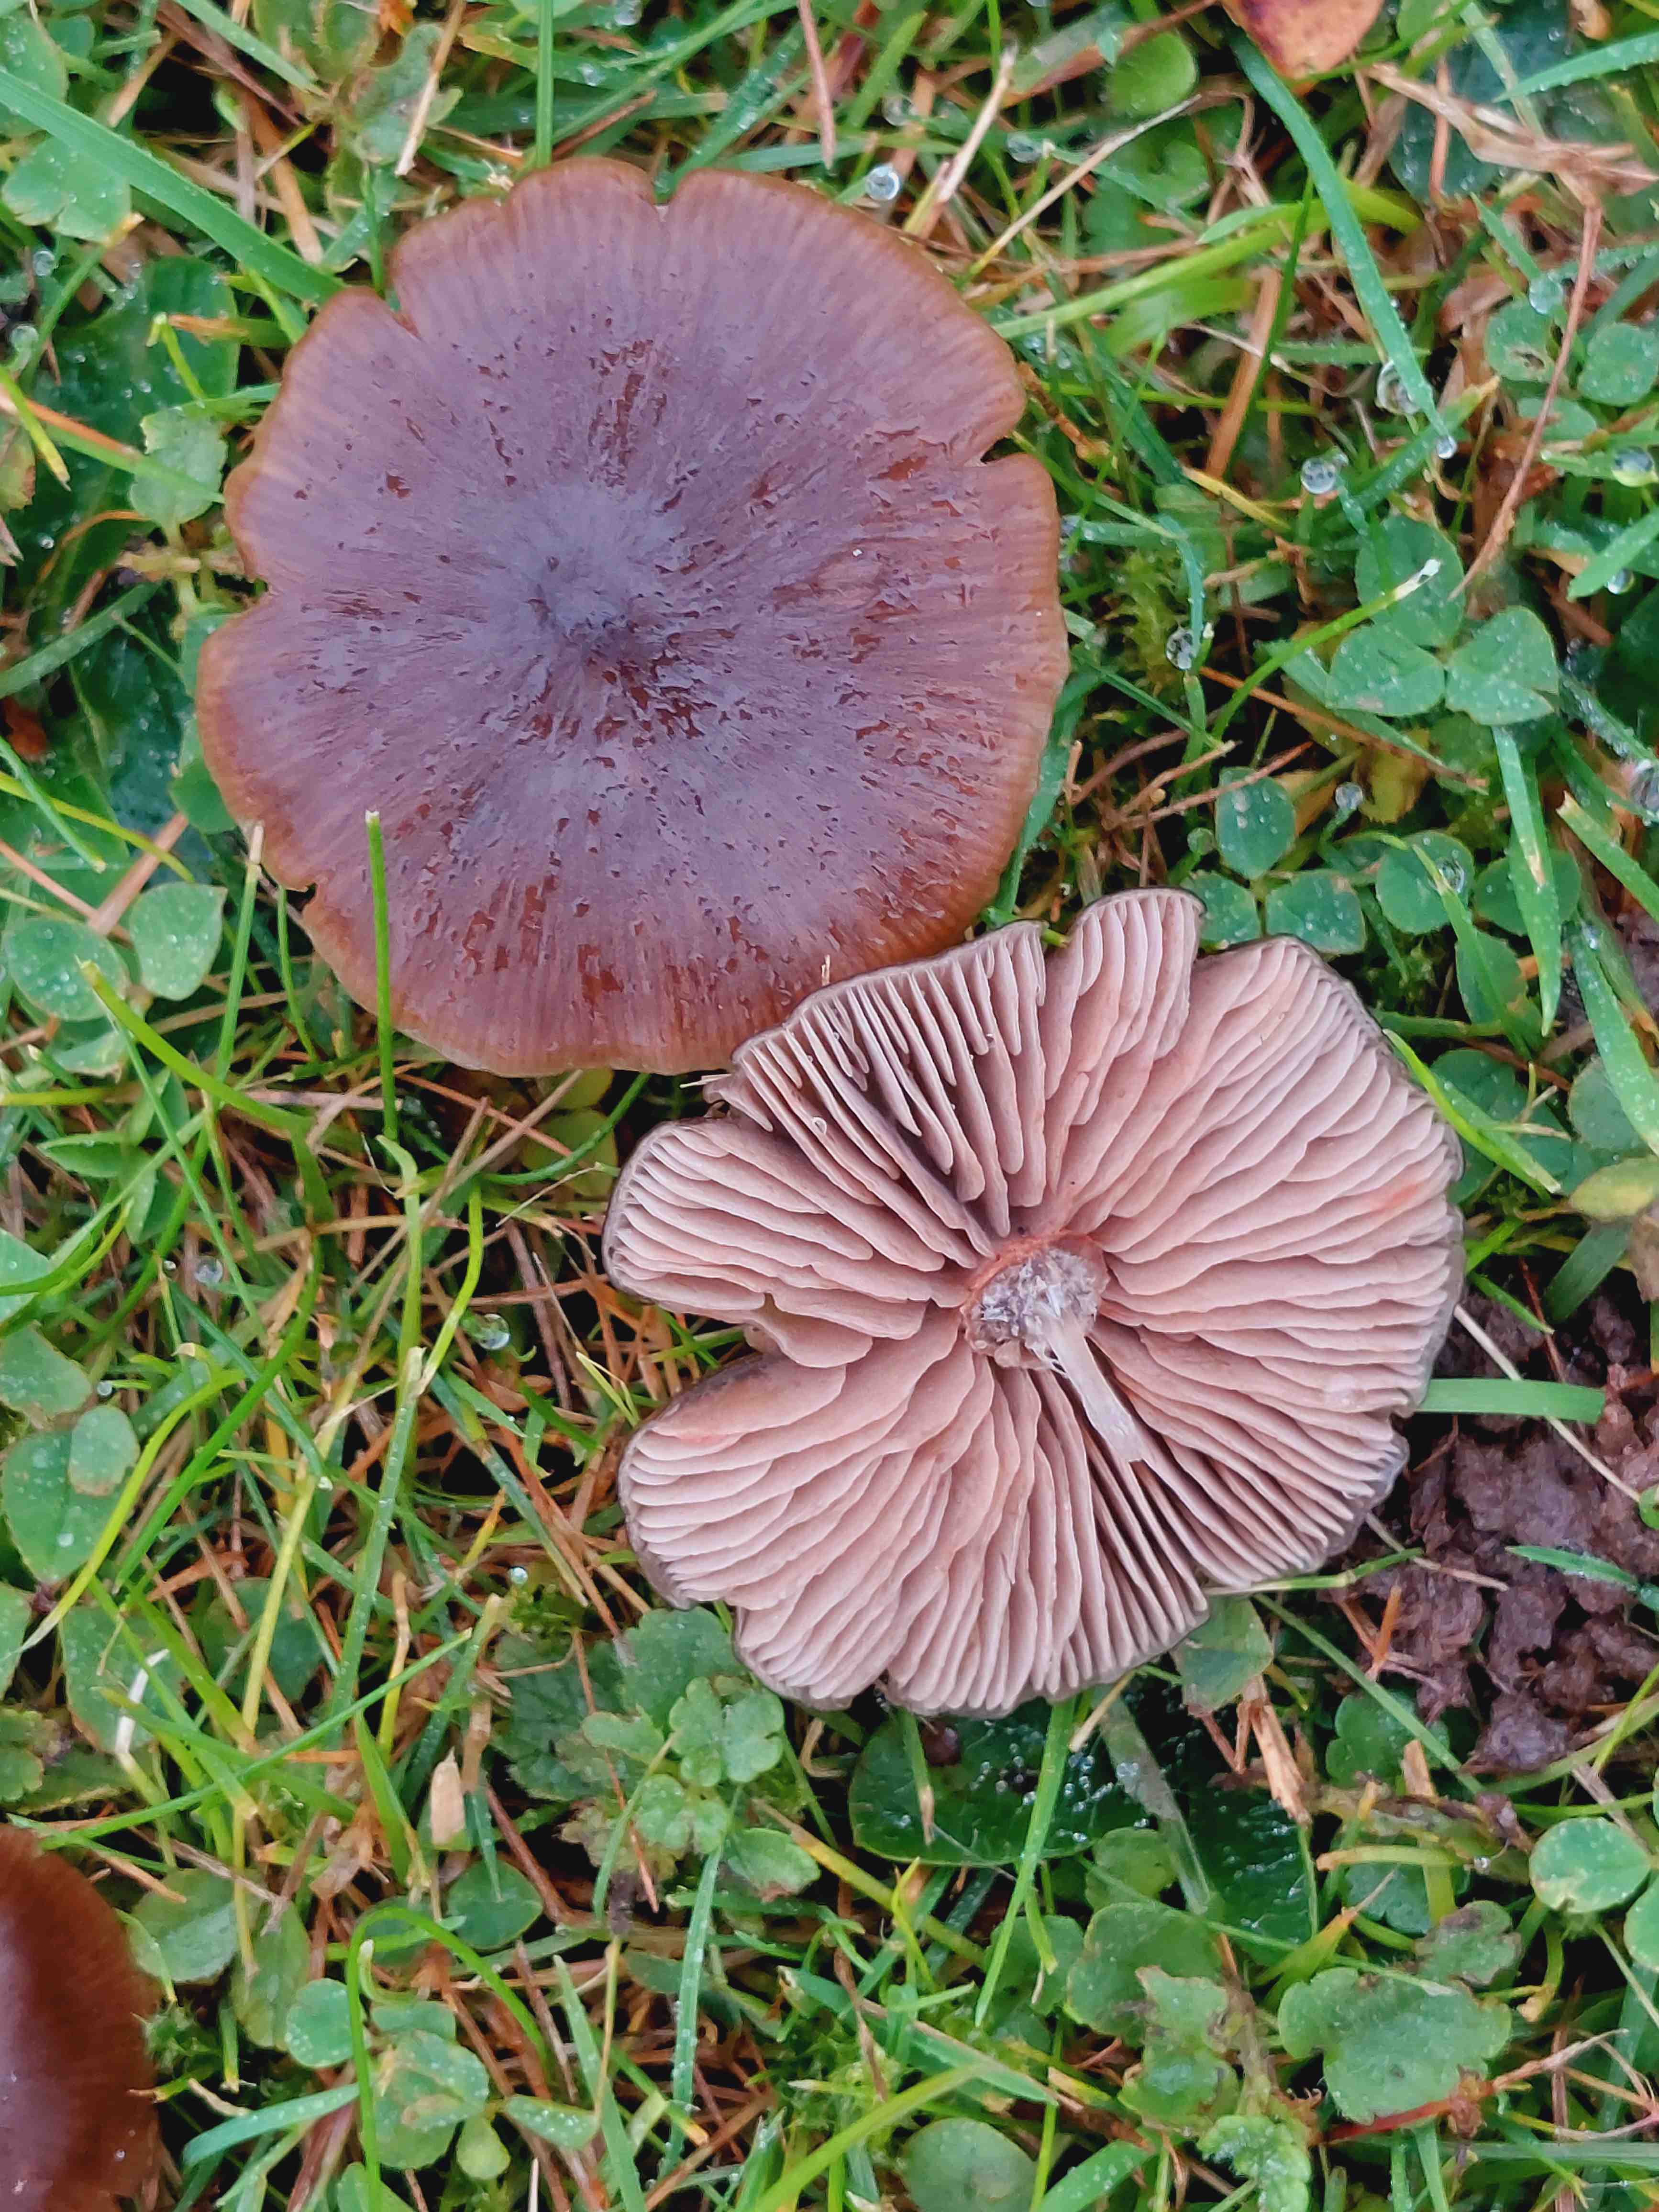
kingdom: Fungi
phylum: Basidiomycota
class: Agaricomycetes
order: Agaricales
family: Entolomataceae
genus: Entoloma
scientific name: Entoloma
